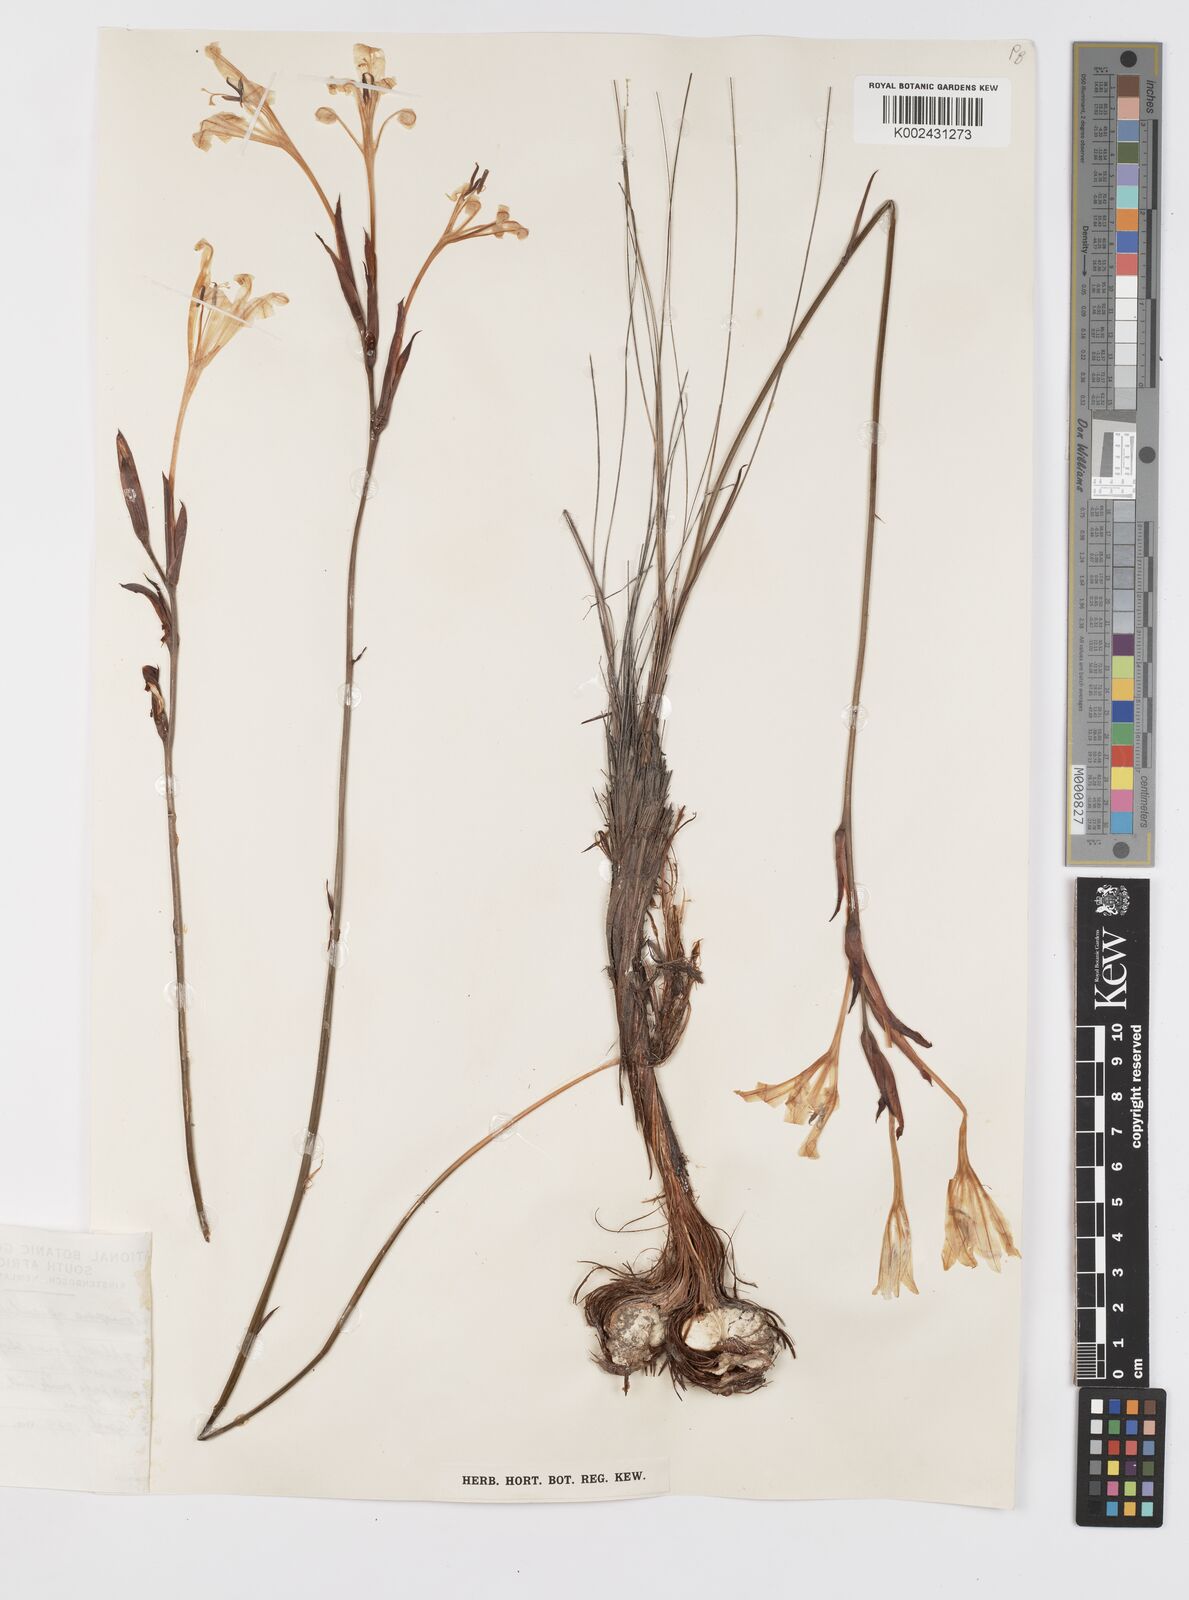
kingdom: Plantae
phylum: Tracheophyta
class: Liliopsida
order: Asparagales
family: Iridaceae
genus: Tritoniopsis
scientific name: Tritoniopsis revoluta
